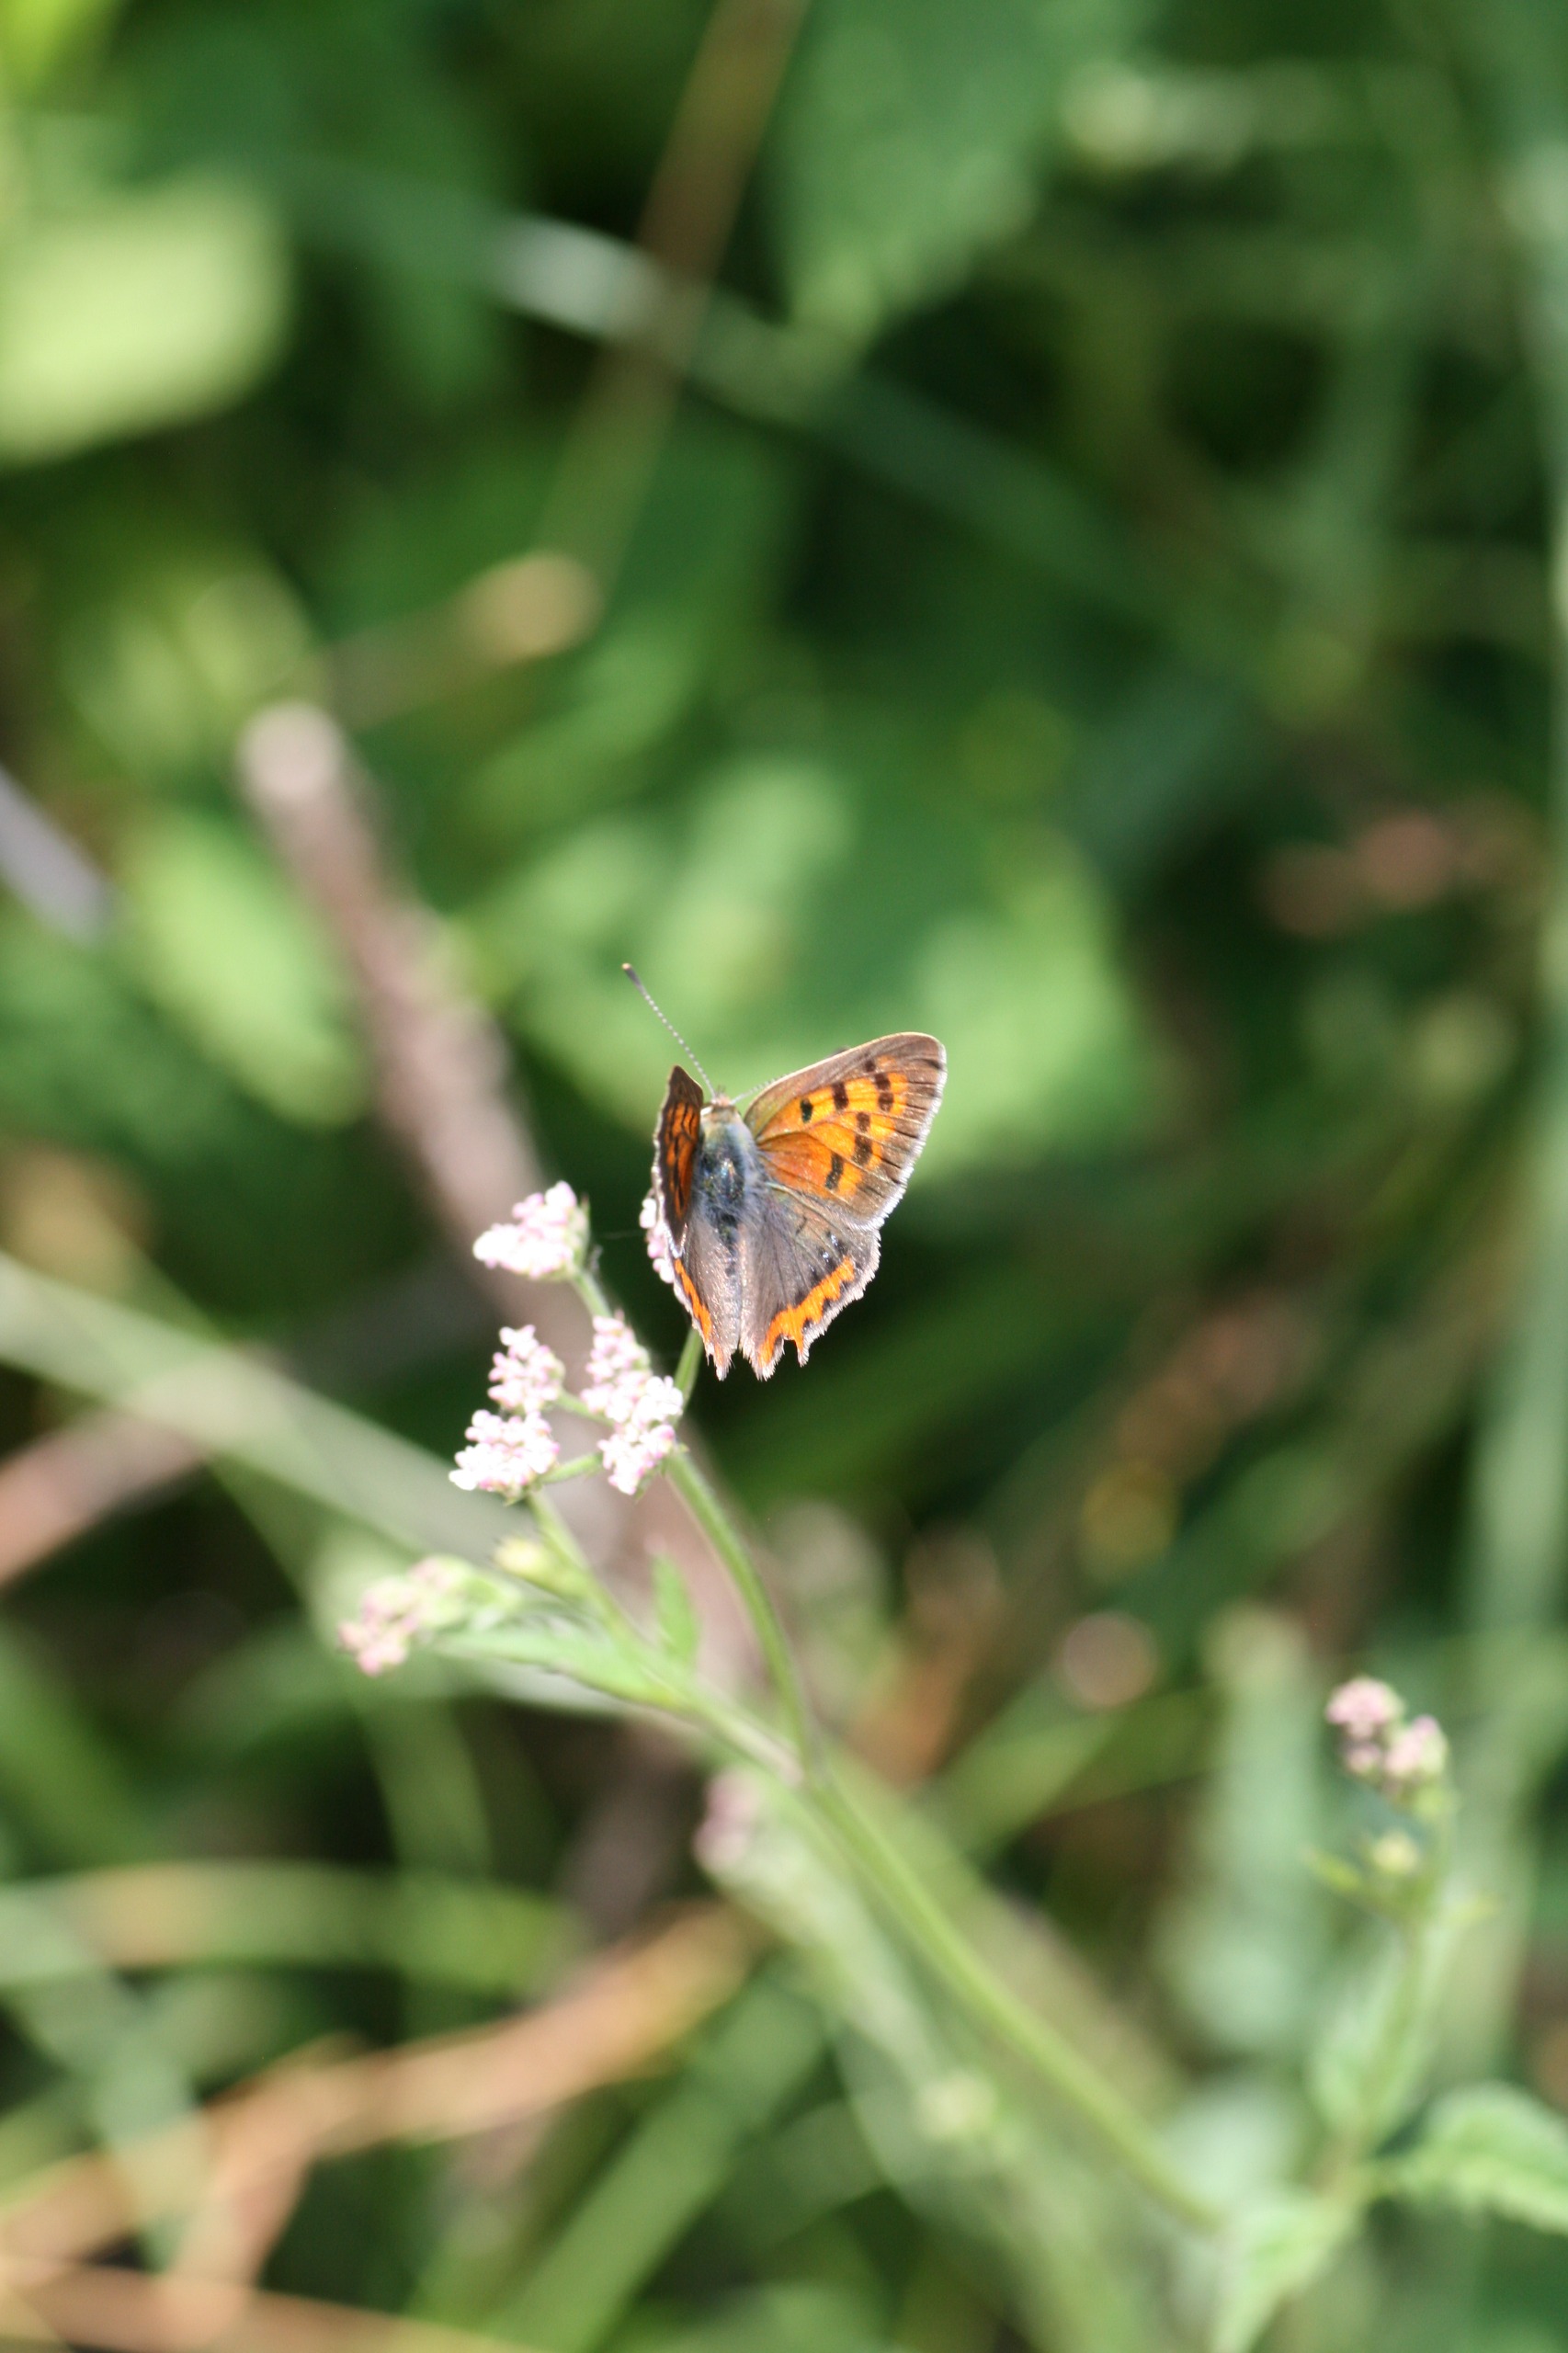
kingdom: Animalia
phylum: Arthropoda
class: Insecta
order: Lepidoptera
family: Lycaenidae
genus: Lycaena
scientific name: Lycaena phlaeas
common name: Lille ildfugl
